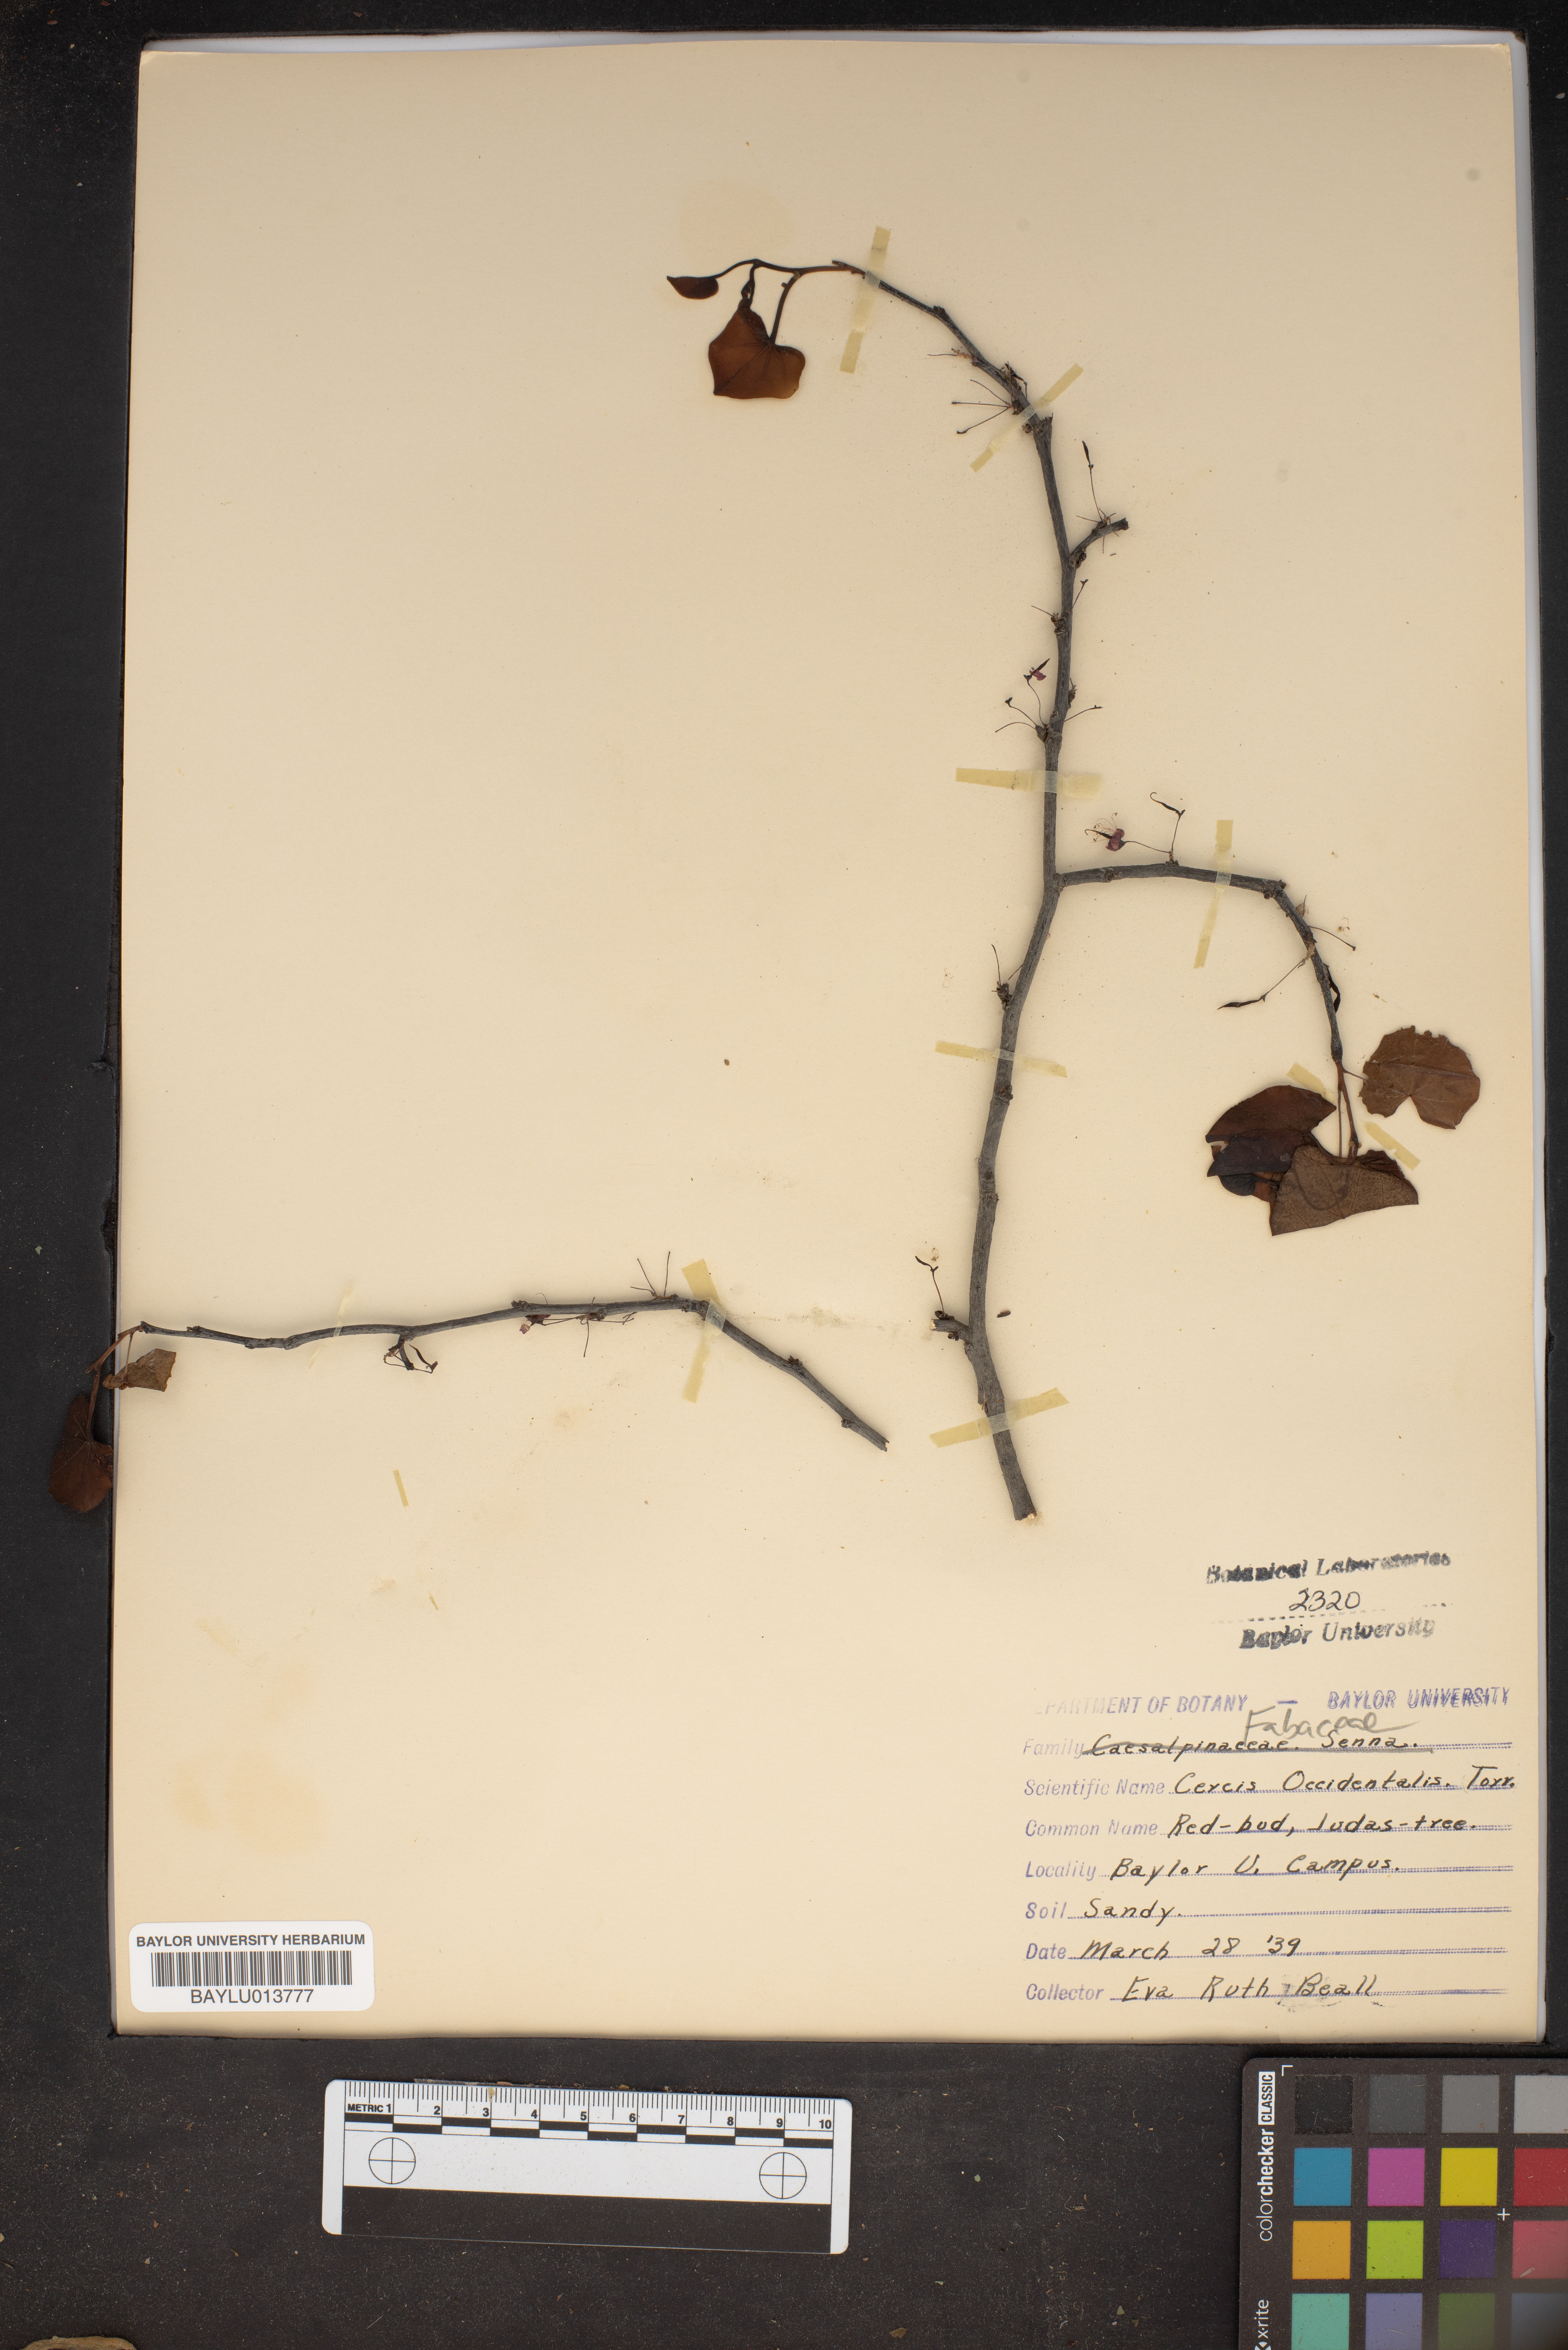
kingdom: Plantae
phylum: Tracheophyta
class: Magnoliopsida
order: Fabales
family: Fabaceae
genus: Cercis
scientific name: Cercis occidentalis
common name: California redbud
